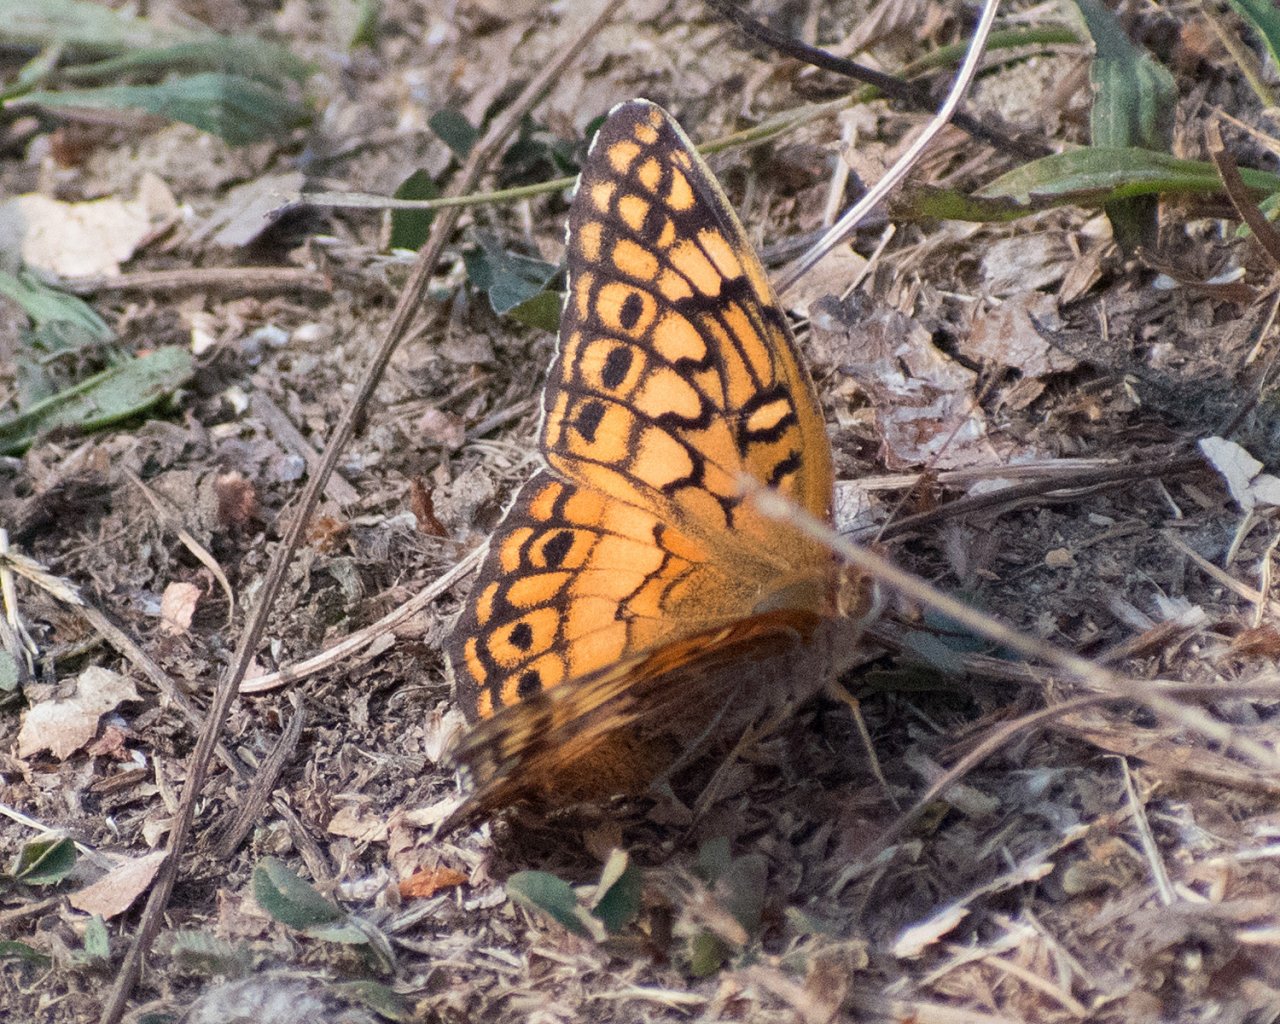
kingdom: Animalia
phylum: Arthropoda
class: Insecta
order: Lepidoptera
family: Nymphalidae
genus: Euptoieta
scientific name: Euptoieta claudia
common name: Variegated Fritillary
